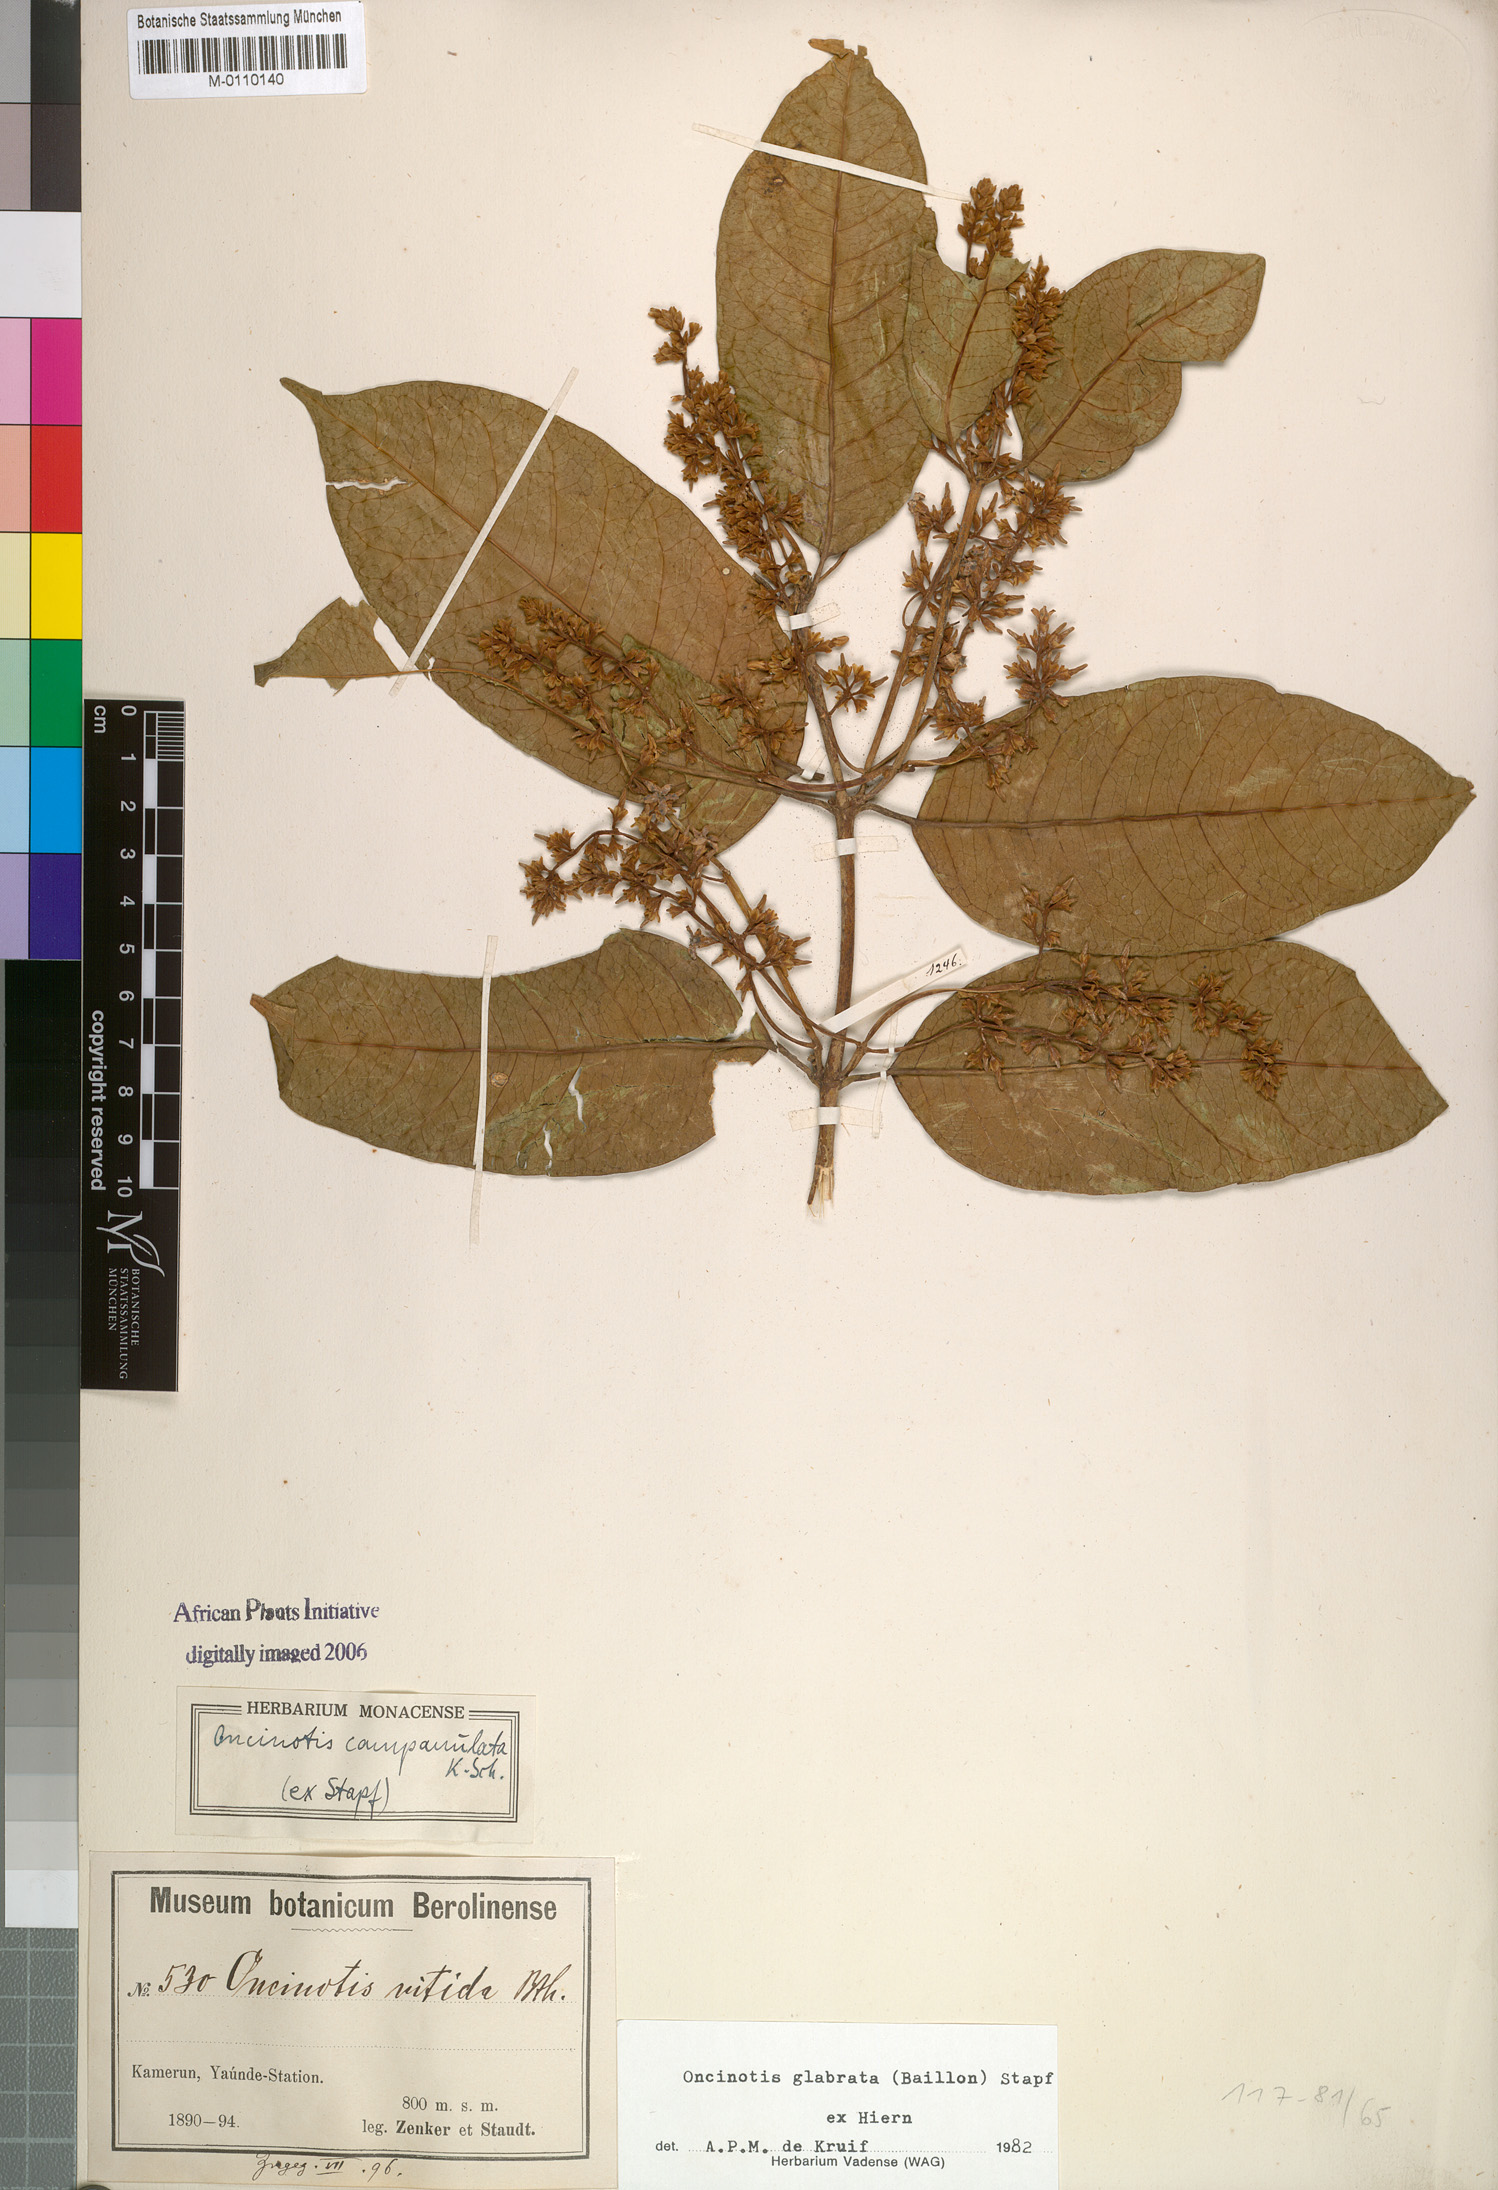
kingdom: Plantae
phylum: Tracheophyta
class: Magnoliopsida
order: Gentianales
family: Apocynaceae
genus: Oncinotis
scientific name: Oncinotis glabrata
